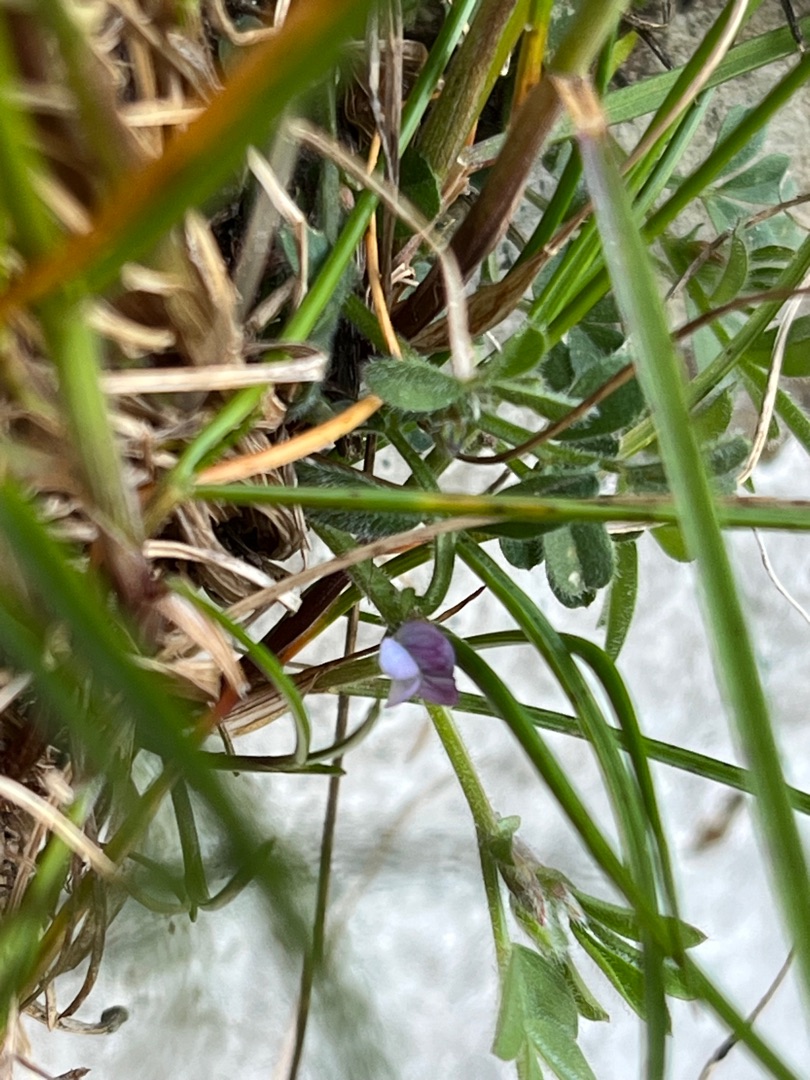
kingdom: Plantae
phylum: Tracheophyta
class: Magnoliopsida
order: Fabales
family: Fabaceae
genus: Vicia
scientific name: Vicia lathyroides
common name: Vår-vikke
